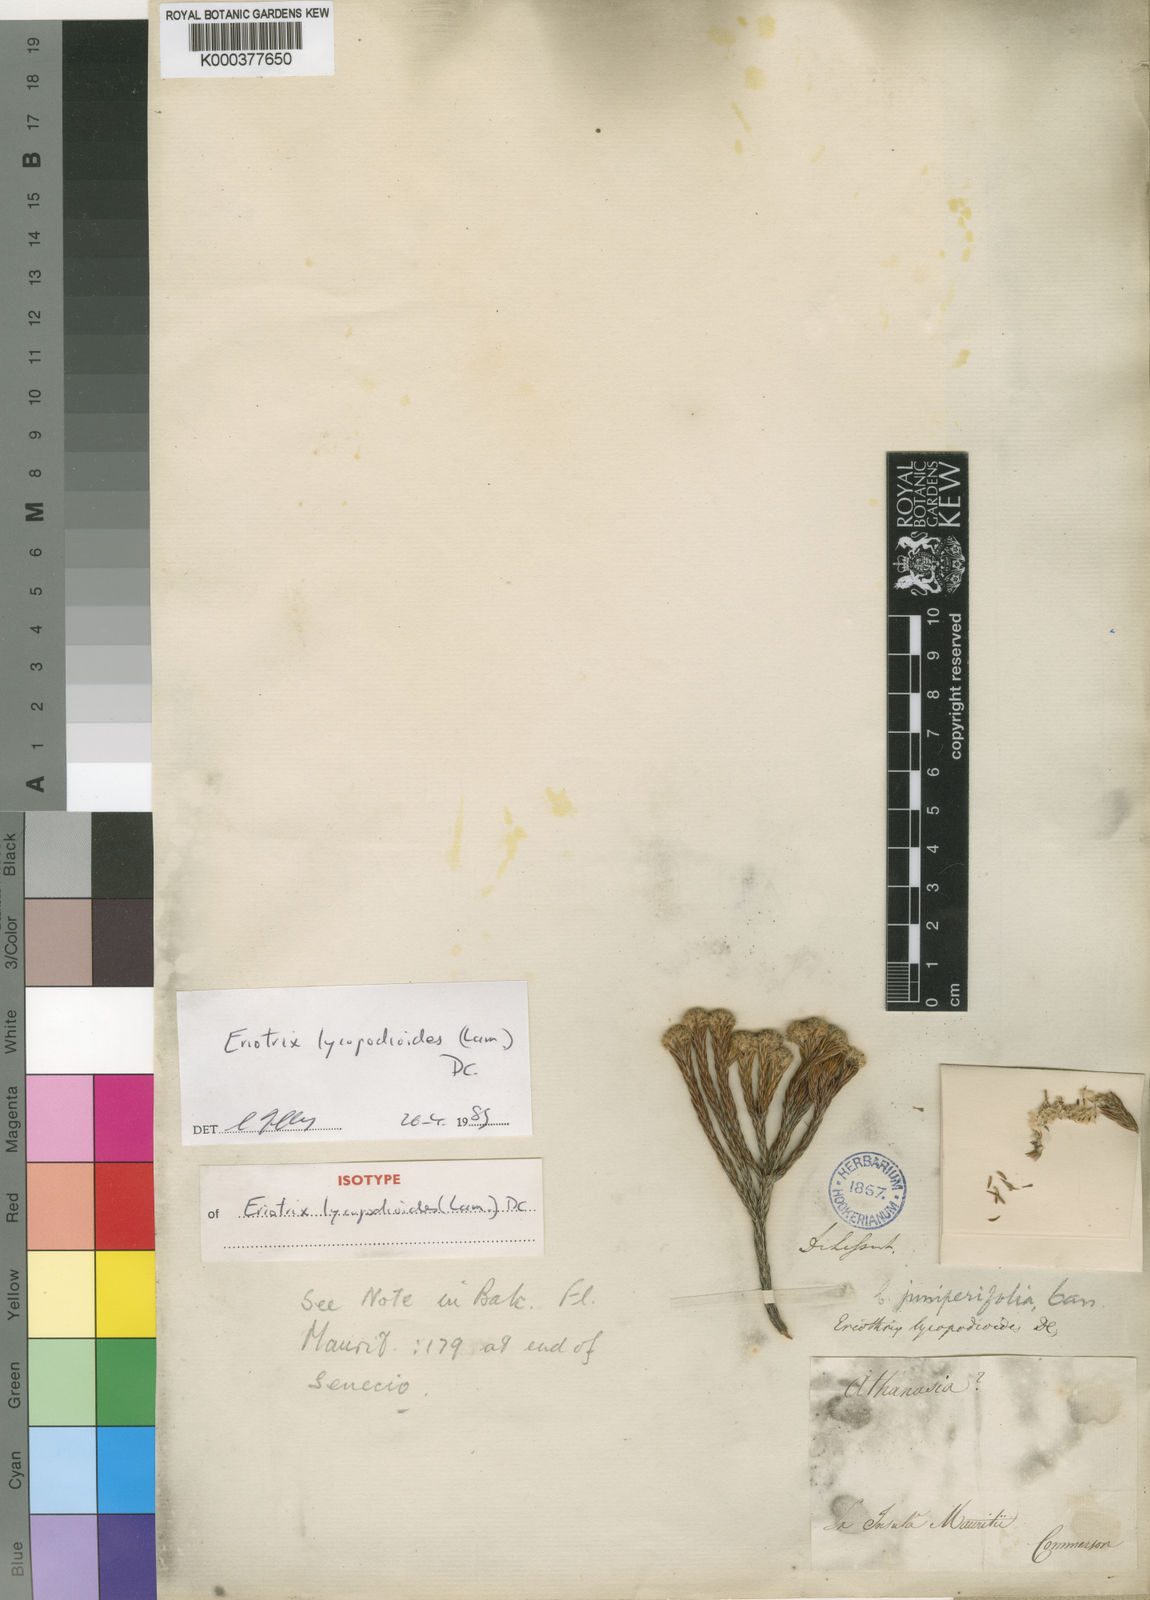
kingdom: Plantae
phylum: Tracheophyta
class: Magnoliopsida
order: Asterales
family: Asteraceae
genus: Eriothrix
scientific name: Eriothrix lycopodioides
